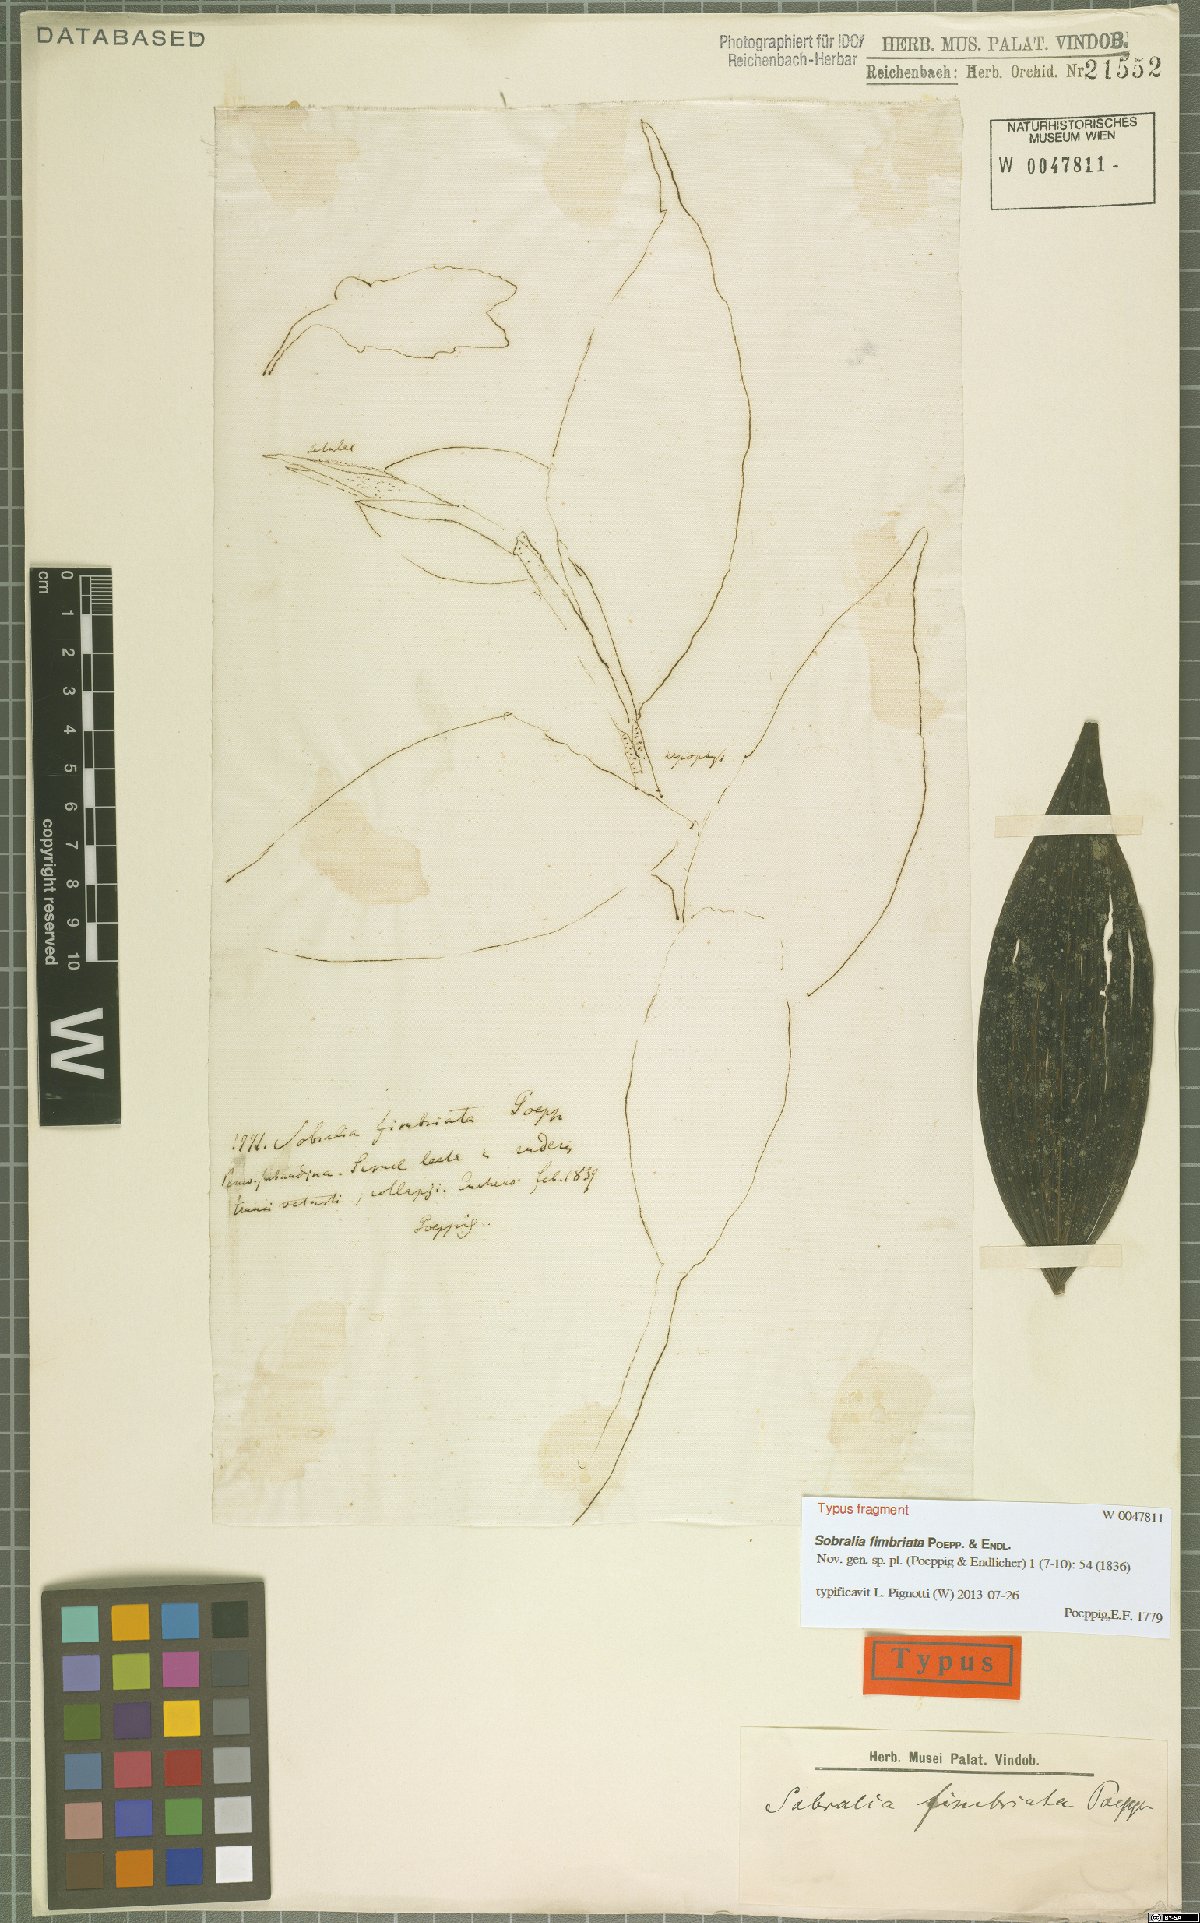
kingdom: Plantae
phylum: Tracheophyta
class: Liliopsida
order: Asparagales
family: Orchidaceae
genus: Sobralia
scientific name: Sobralia fimbriata
